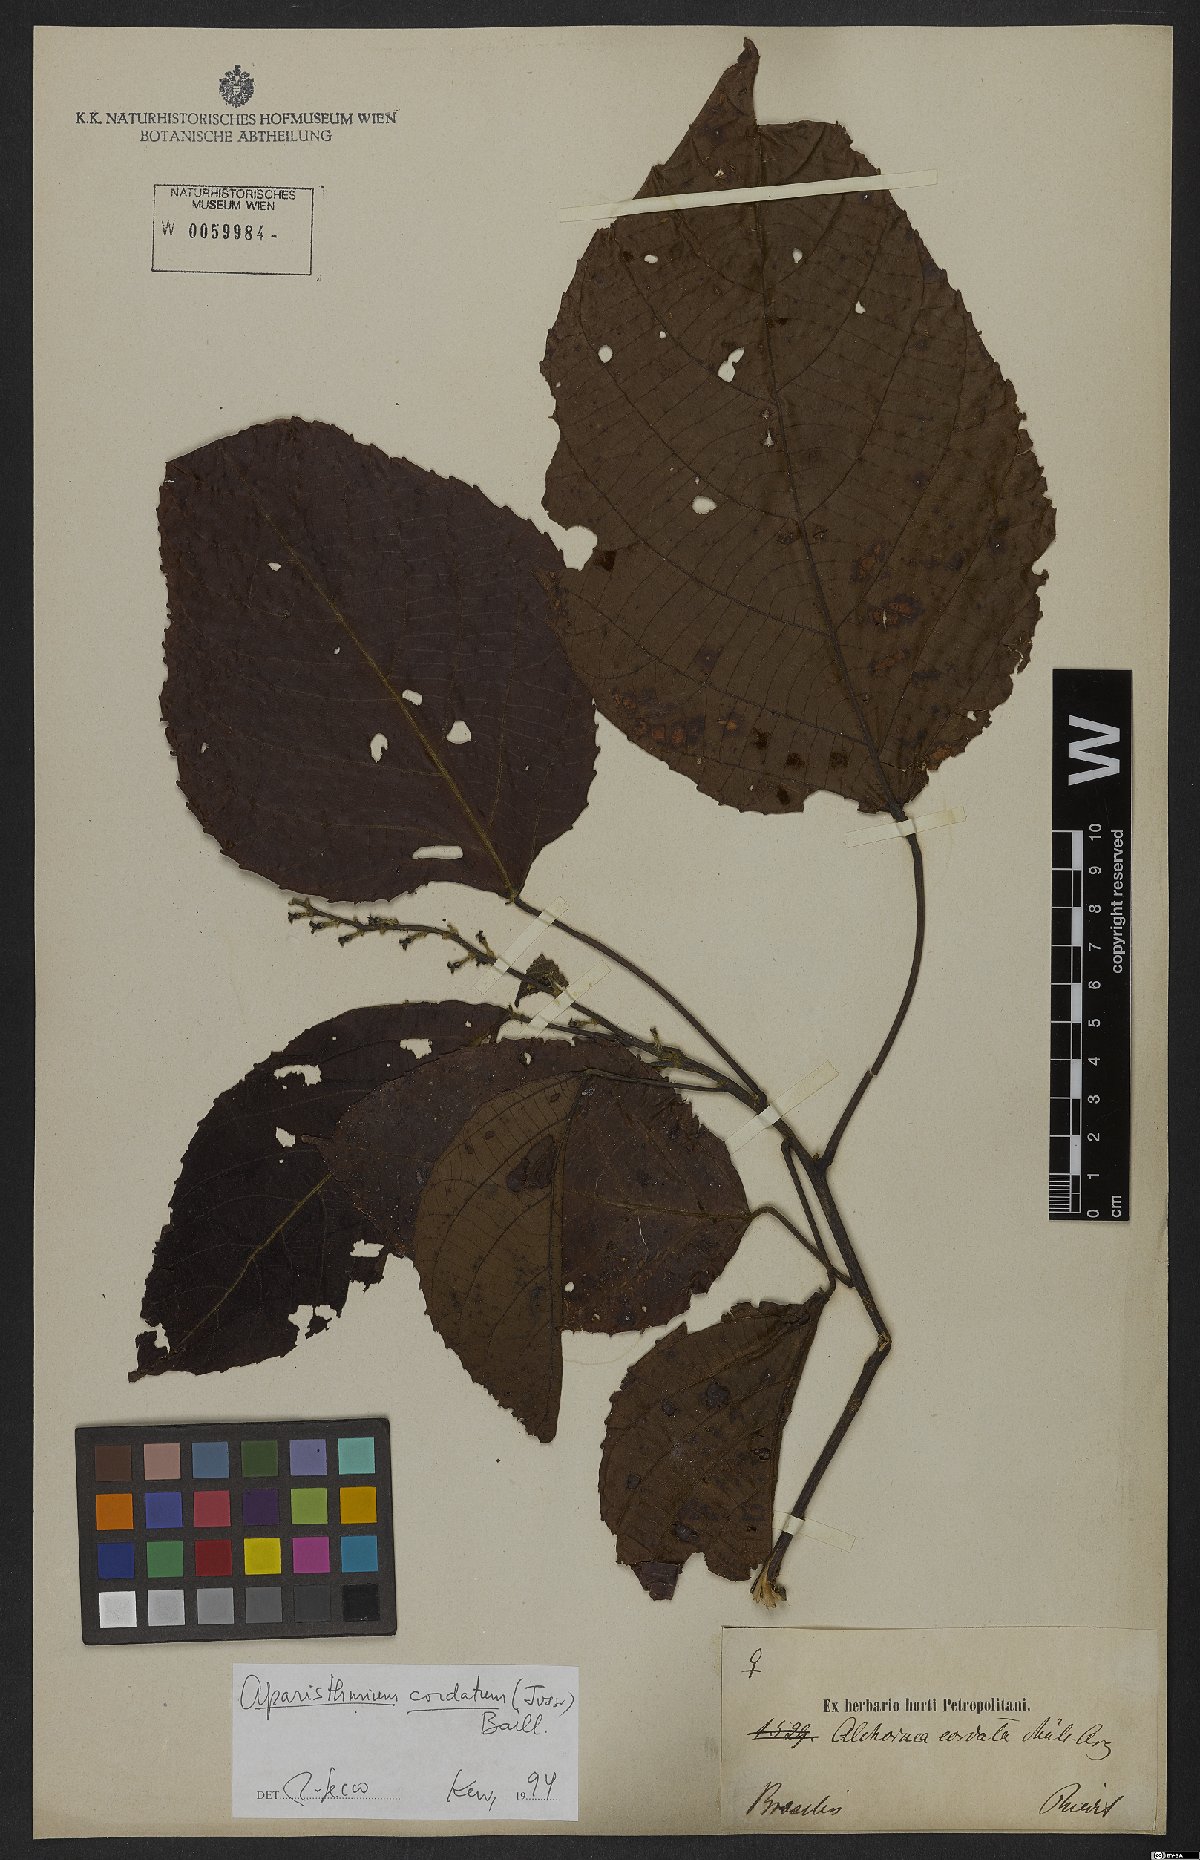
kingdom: Plantae
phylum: Tracheophyta
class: Magnoliopsida
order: Malpighiales
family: Euphorbiaceae
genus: Aparisthmium
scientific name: Aparisthmium cordatum
